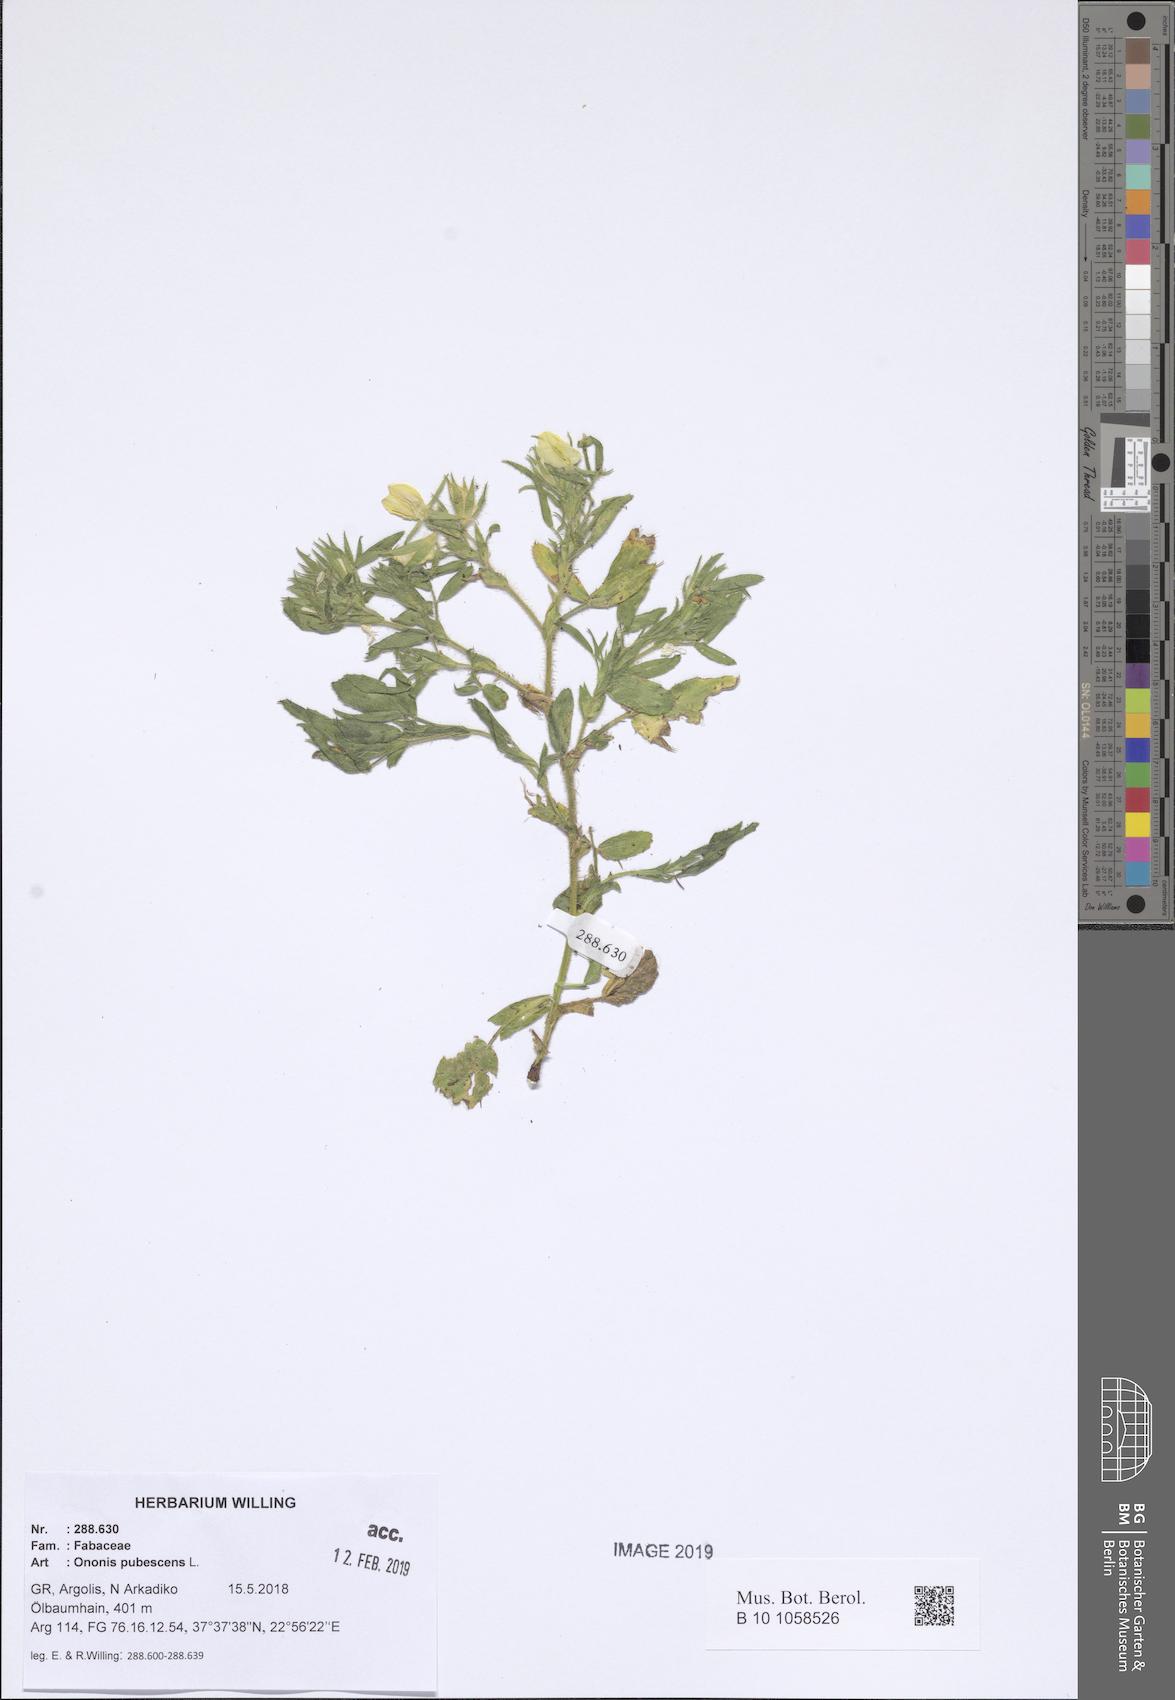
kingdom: Plantae
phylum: Tracheophyta
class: Magnoliopsida
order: Fabales
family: Fabaceae
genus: Ononis
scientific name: Ononis pubescens
